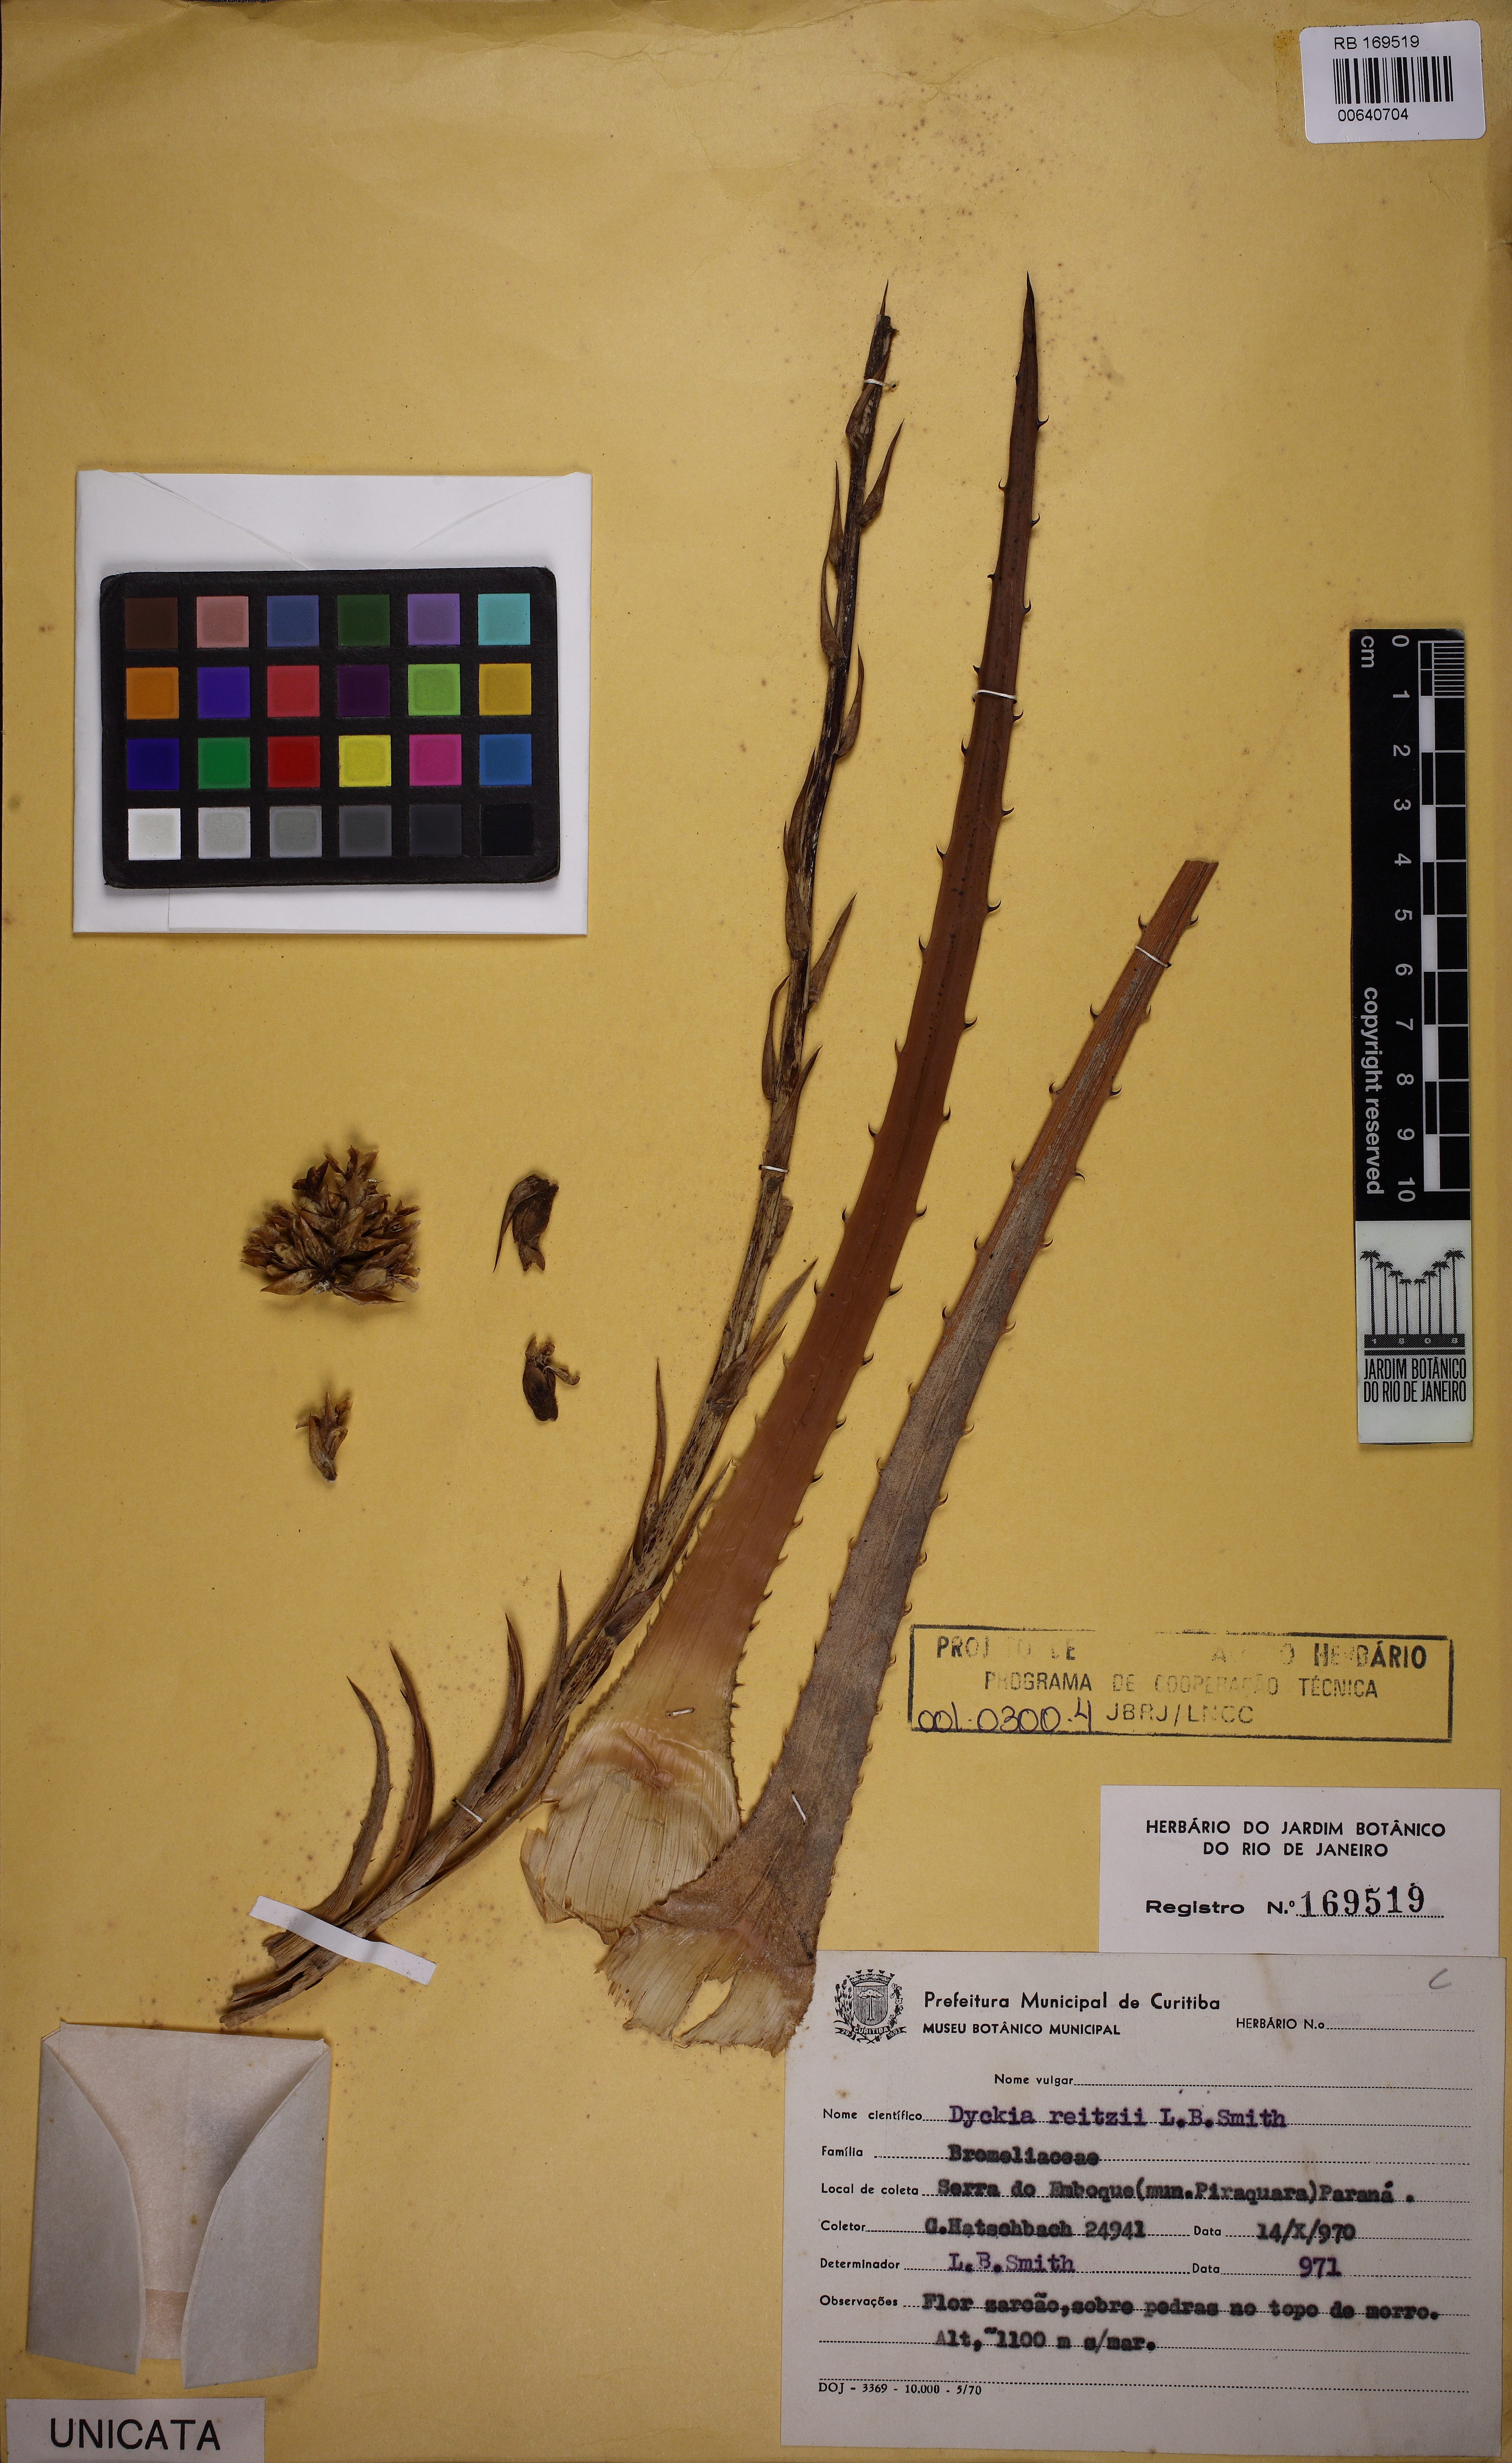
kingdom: Plantae
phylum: Tracheophyta
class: Liliopsida
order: Poales
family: Bromeliaceae
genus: Dyckia
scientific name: Dyckia fosteriana
